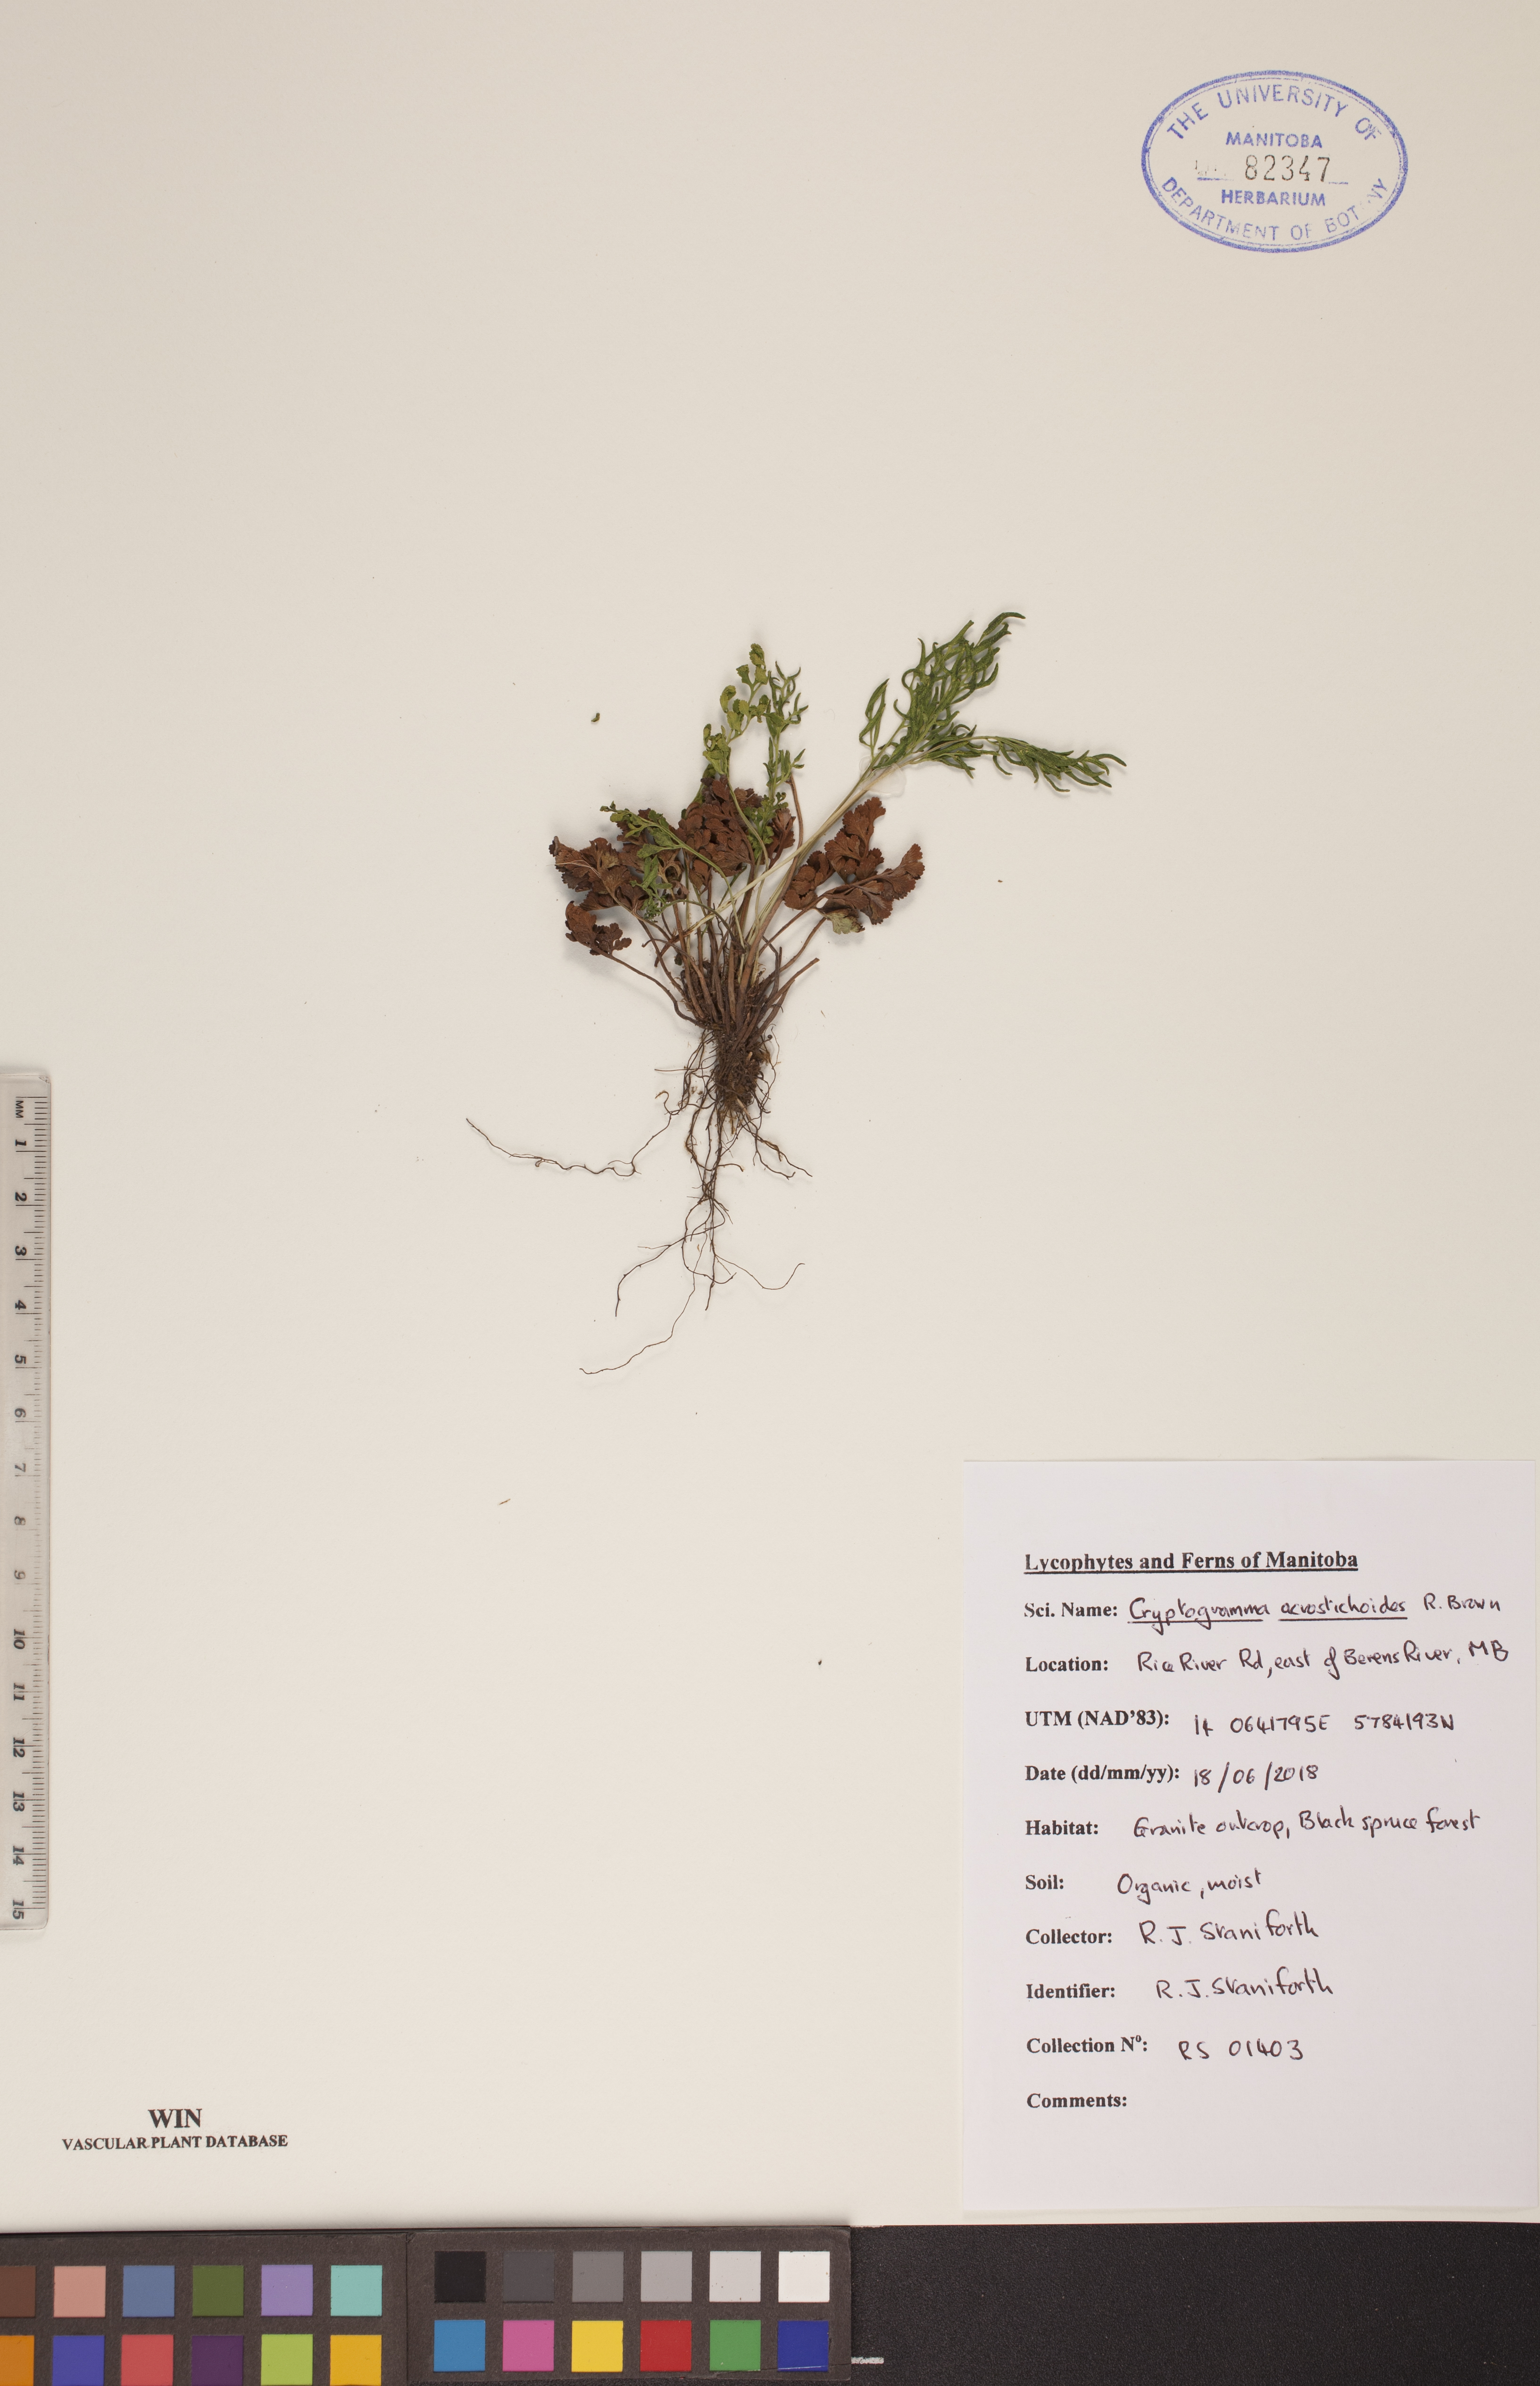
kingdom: Plantae
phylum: Tracheophyta
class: Polypodiopsida
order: Polypodiales
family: Pteridaceae
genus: Cryptogramma
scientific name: Cryptogramma acrostichoides
